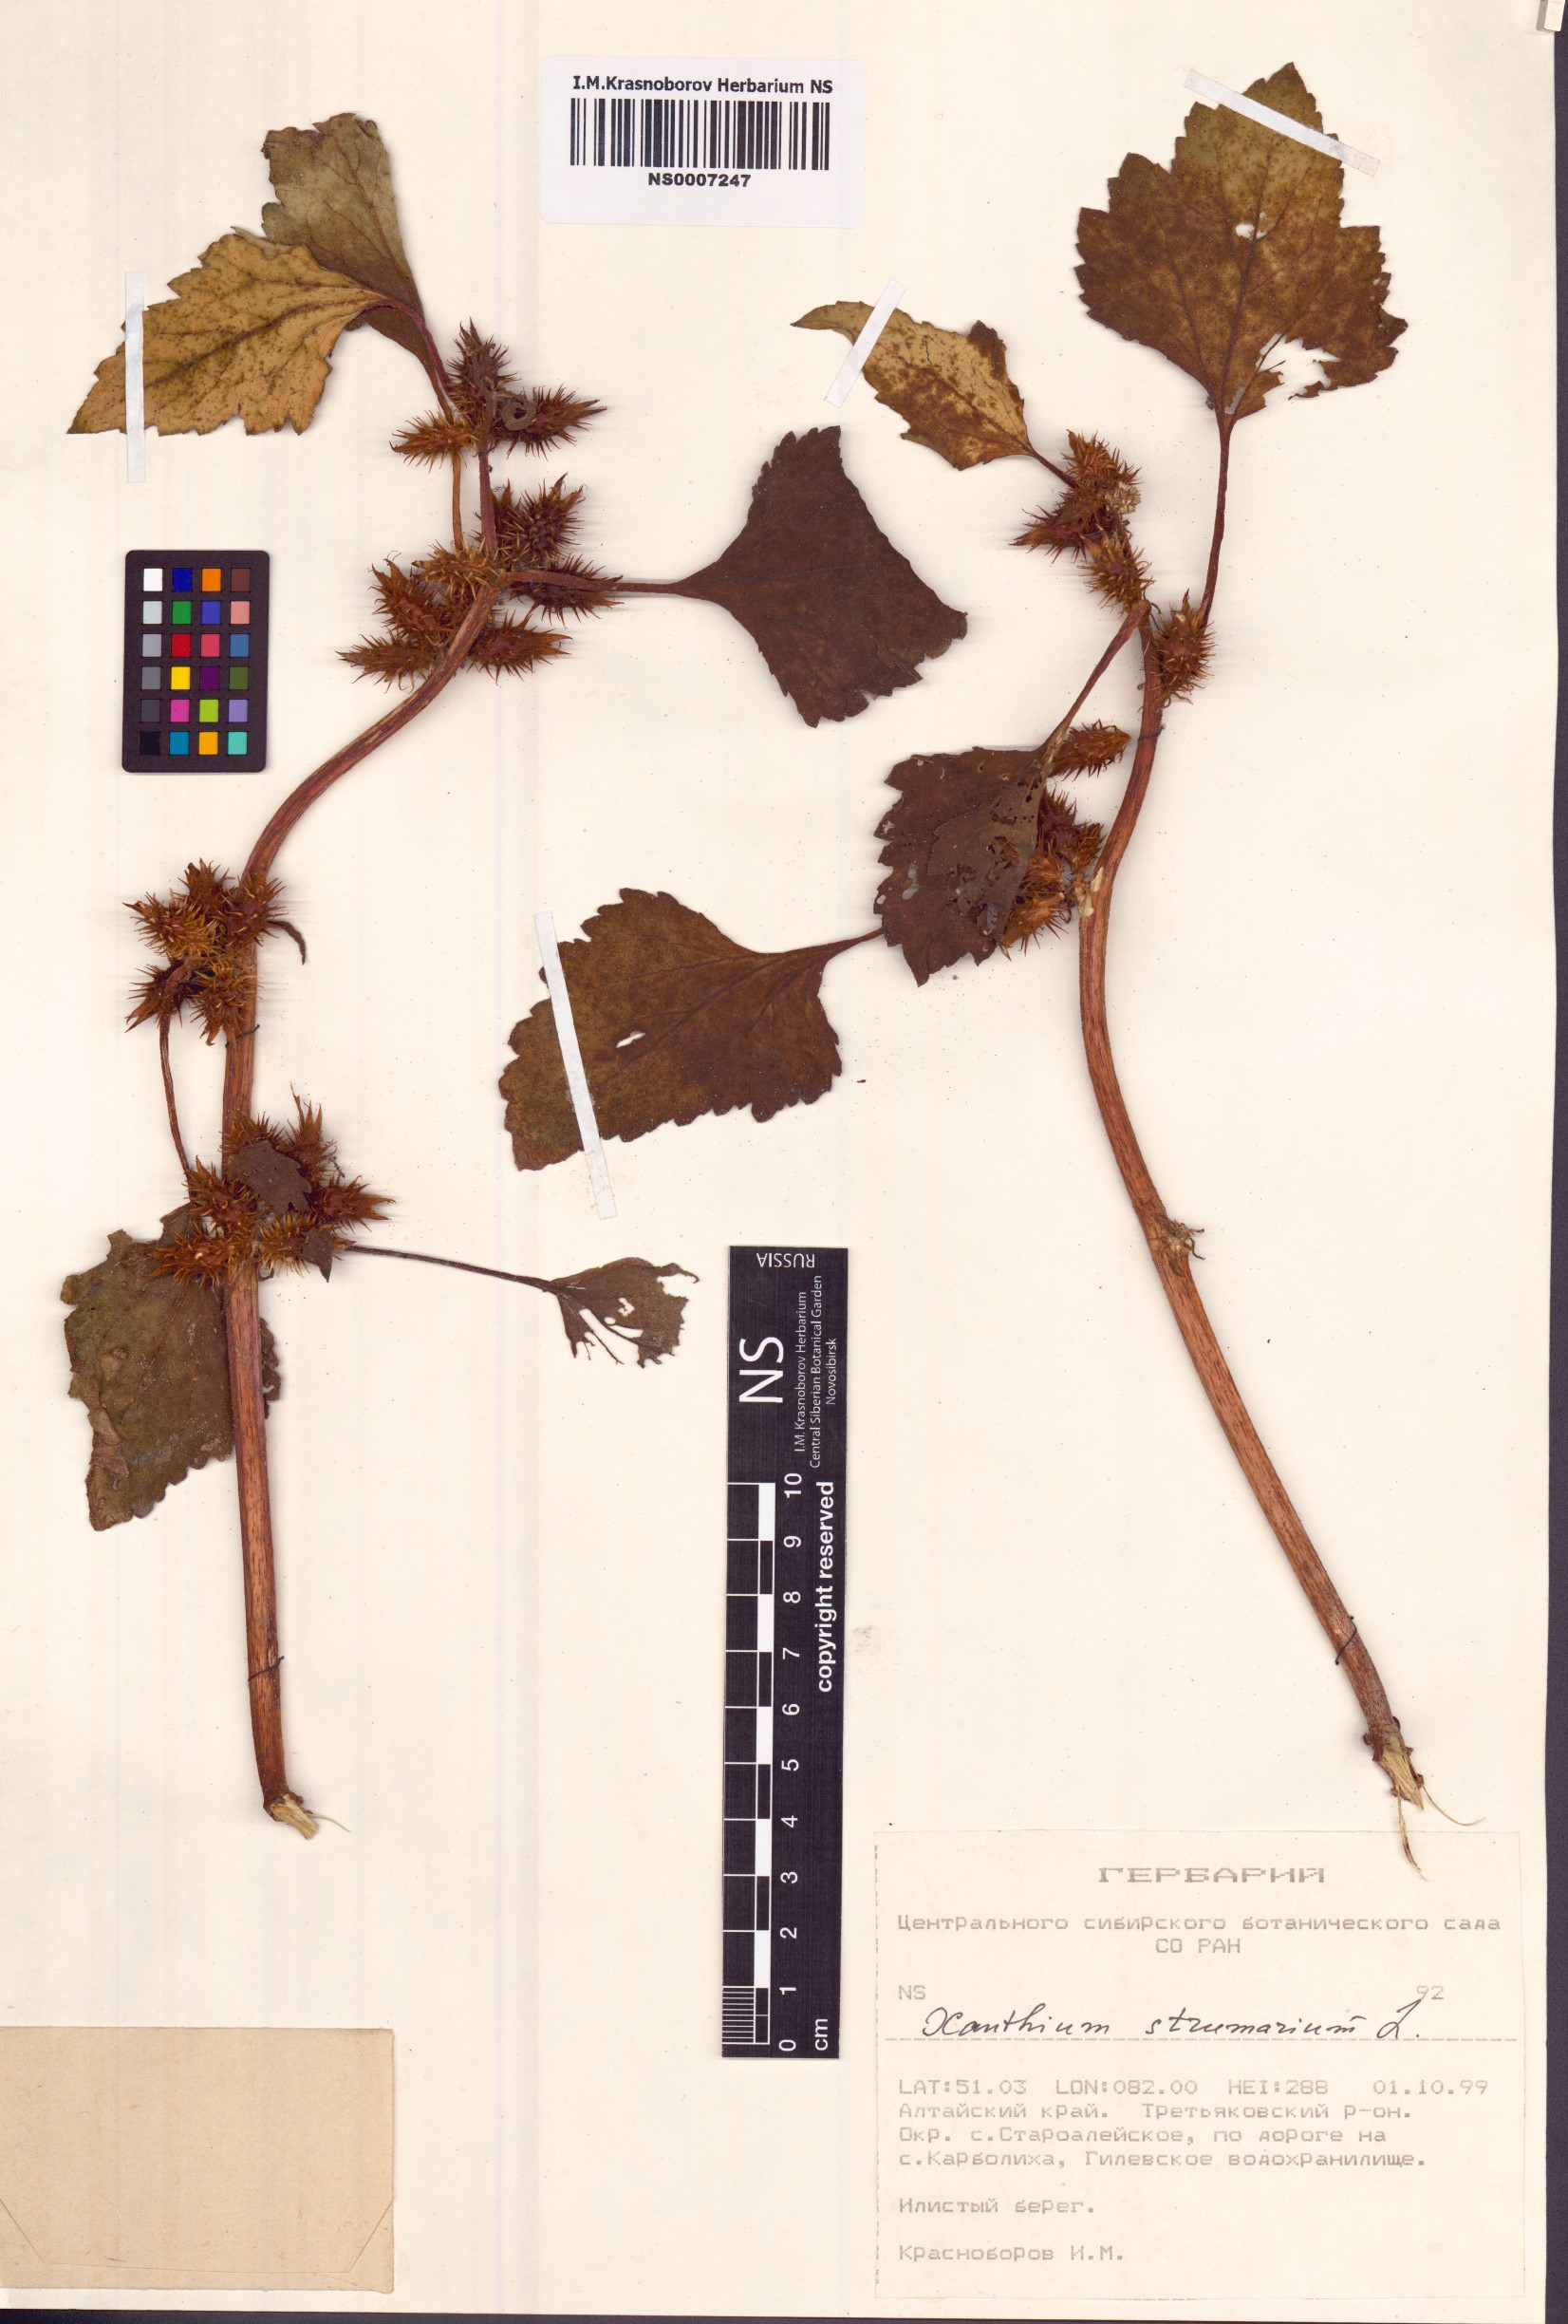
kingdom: Plantae
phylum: Tracheophyta
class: Magnoliopsida
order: Asterales
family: Asteraceae
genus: Xanthium
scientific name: Xanthium strumarium
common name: Rough cocklebur
